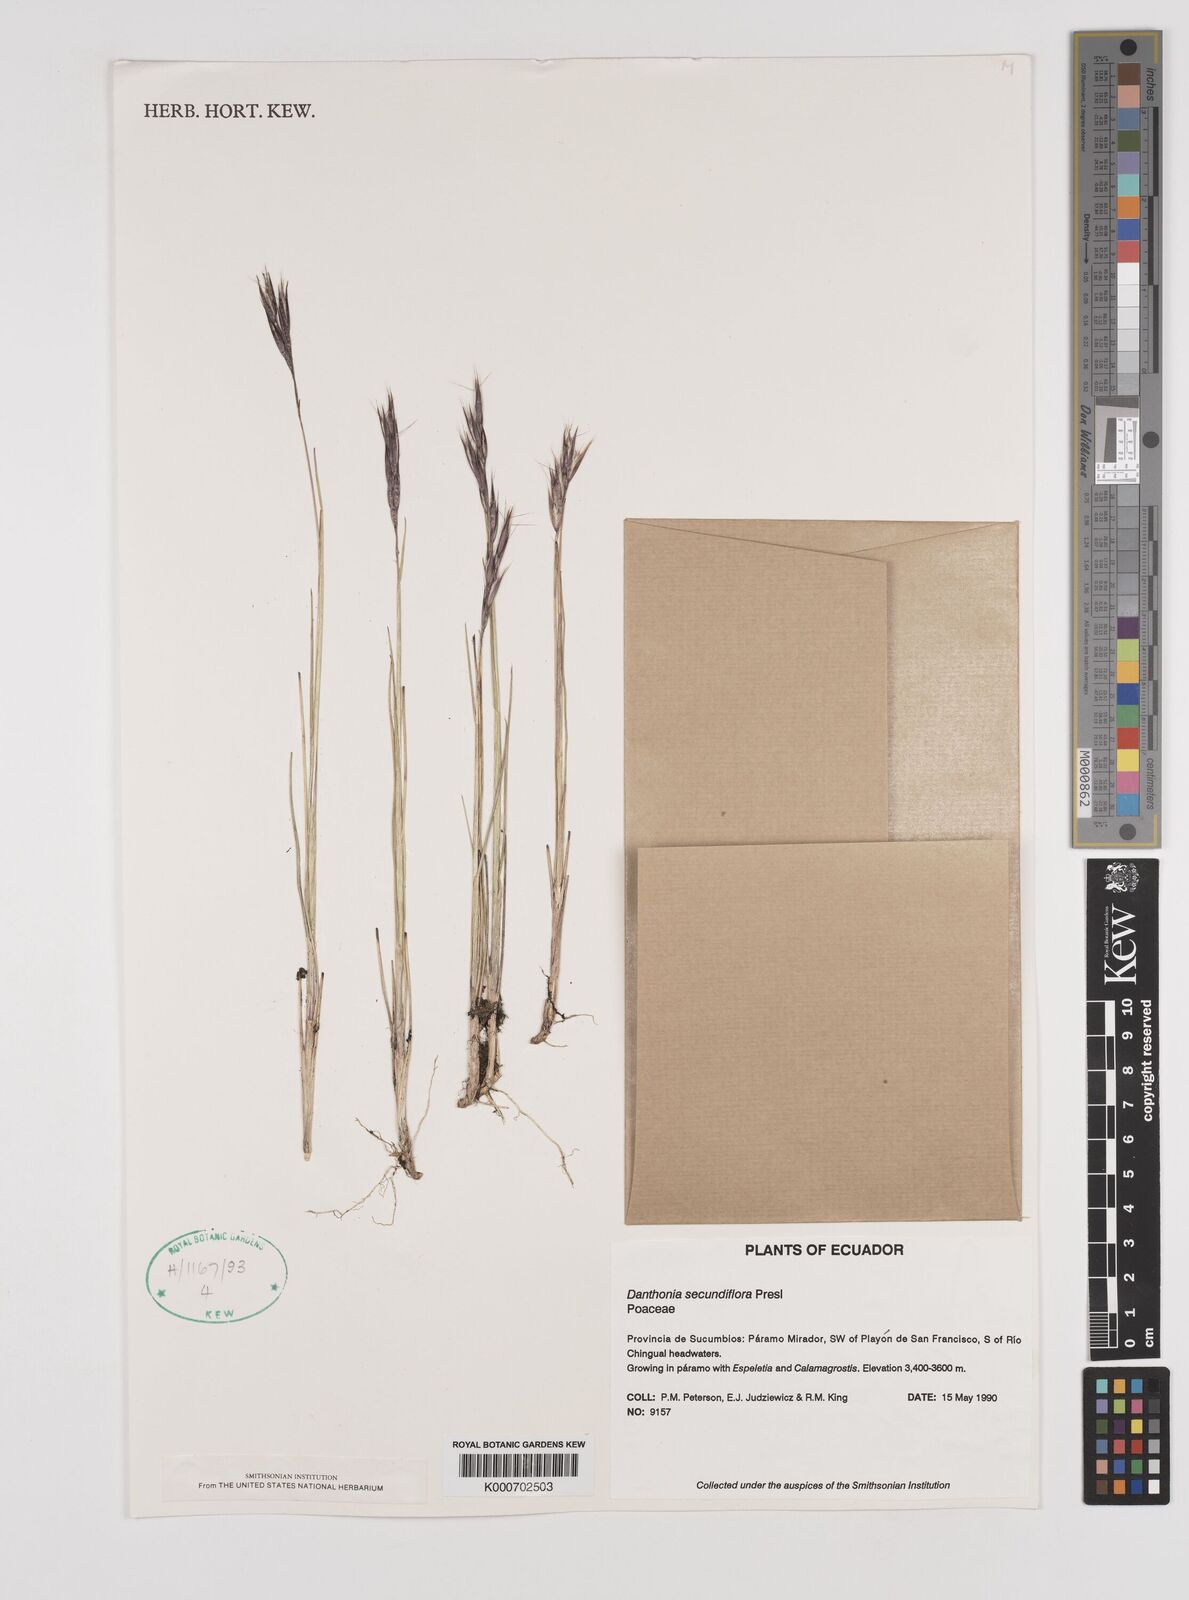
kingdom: Plantae
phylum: Tracheophyta
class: Liliopsida
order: Poales
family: Poaceae
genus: Danthonia
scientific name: Danthonia secundiflora
